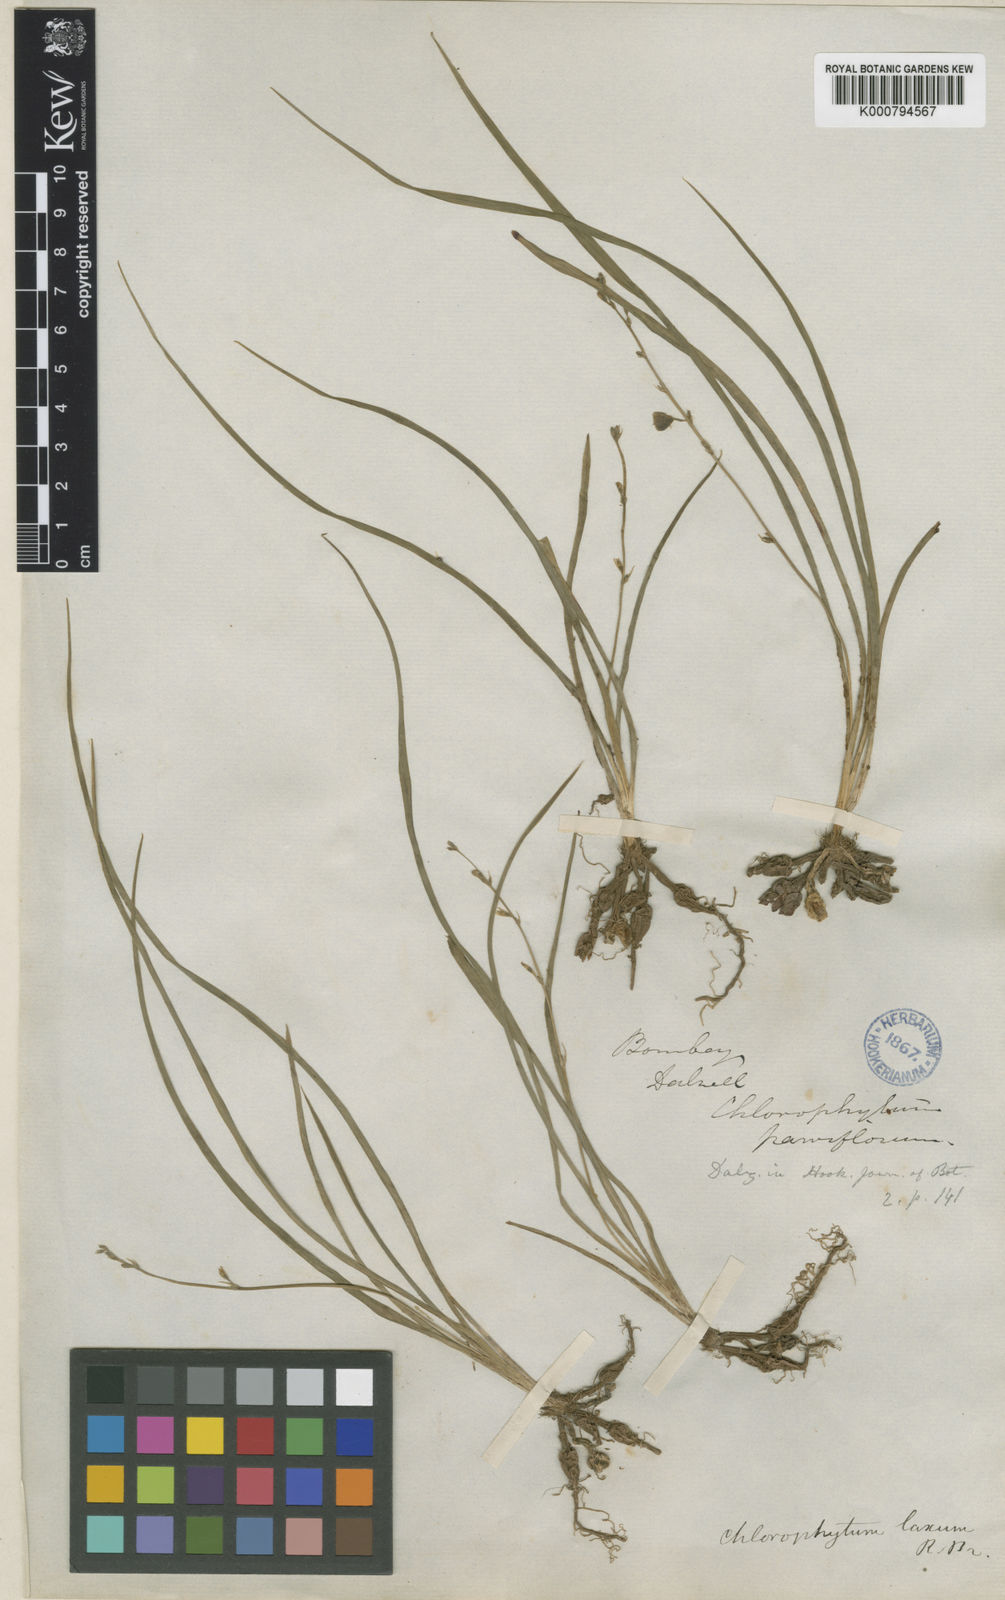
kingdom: Plantae
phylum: Tracheophyta
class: Liliopsida
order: Asparagales
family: Asparagaceae
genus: Chlorophytum
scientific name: Chlorophytum laxum
